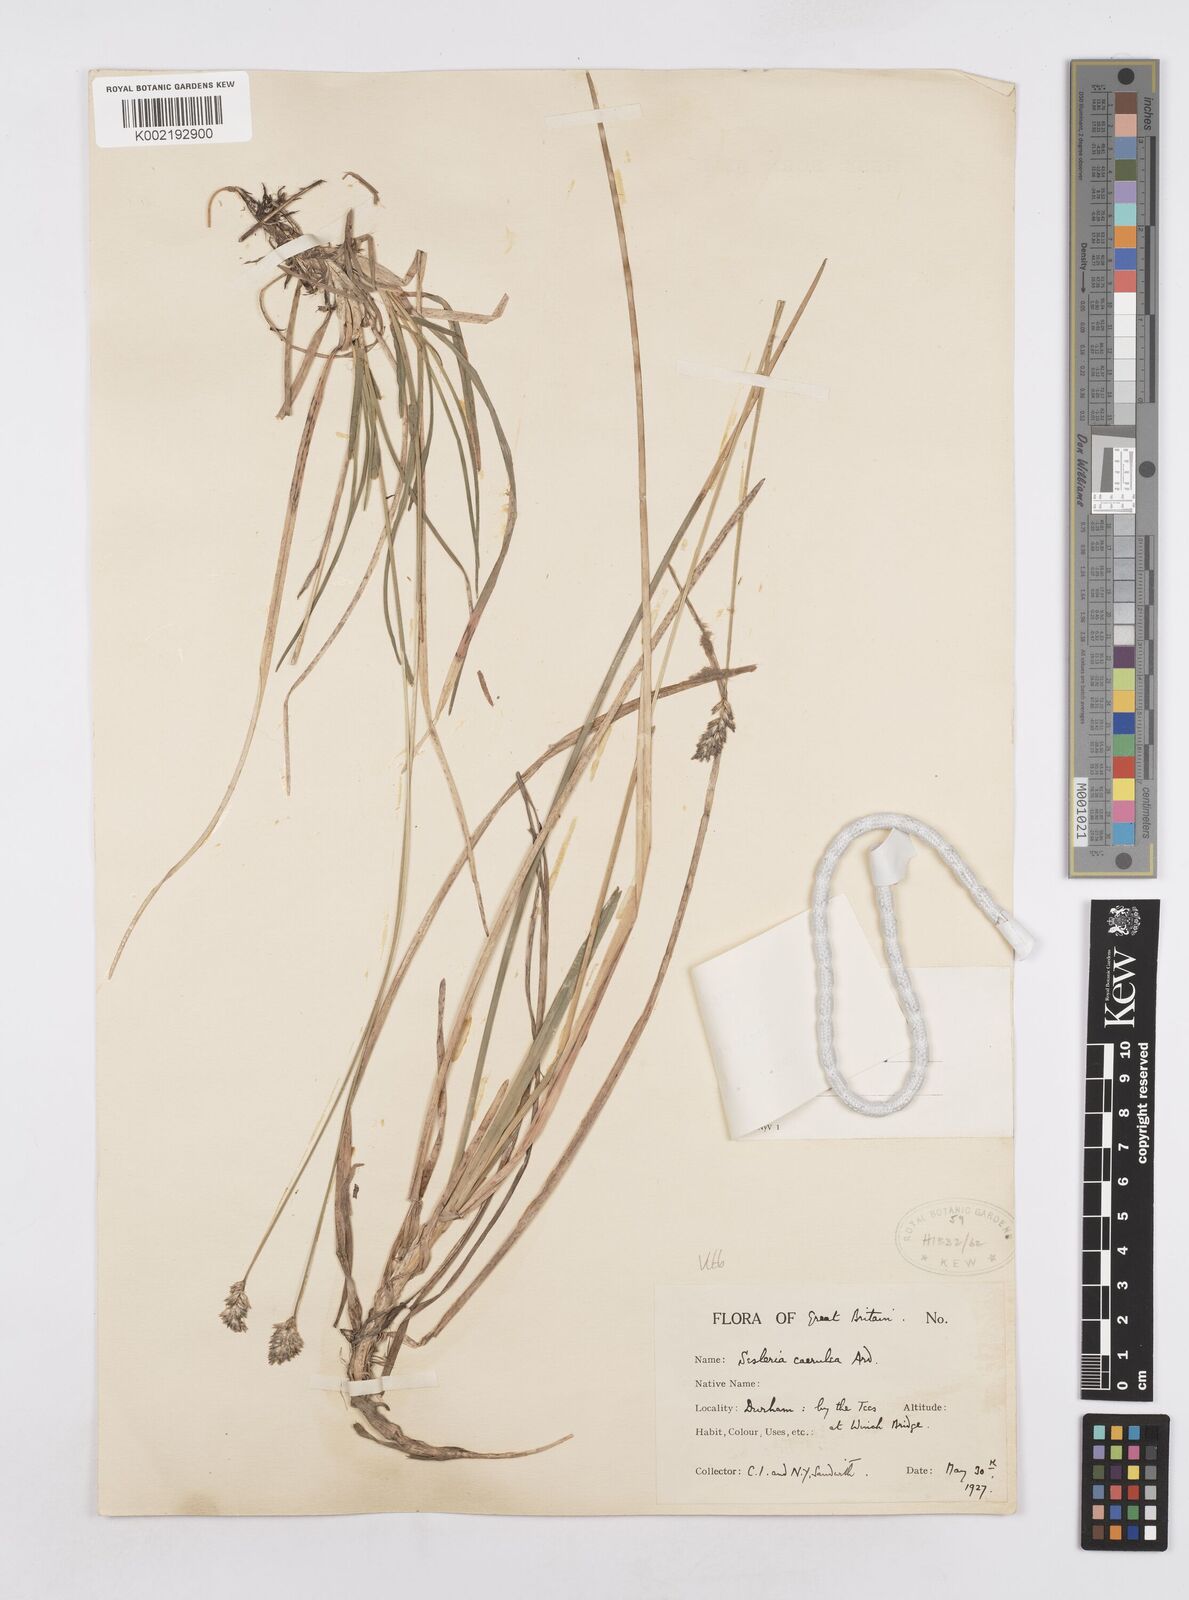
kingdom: Plantae
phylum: Tracheophyta
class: Liliopsida
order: Poales
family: Poaceae
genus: Sesleria
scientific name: Sesleria caerulea
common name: Blue moor-grass
